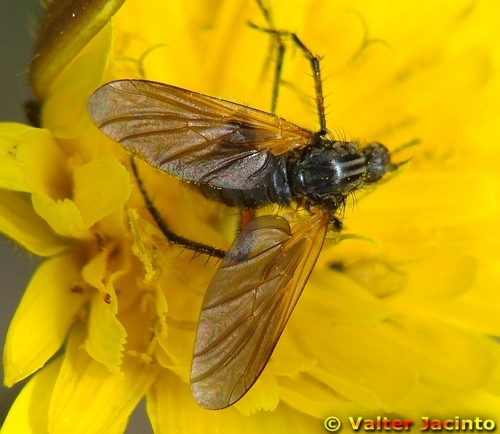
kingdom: Animalia
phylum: Arthropoda
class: Insecta
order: Diptera
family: Empididae
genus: Empis
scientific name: Empis tessellata
